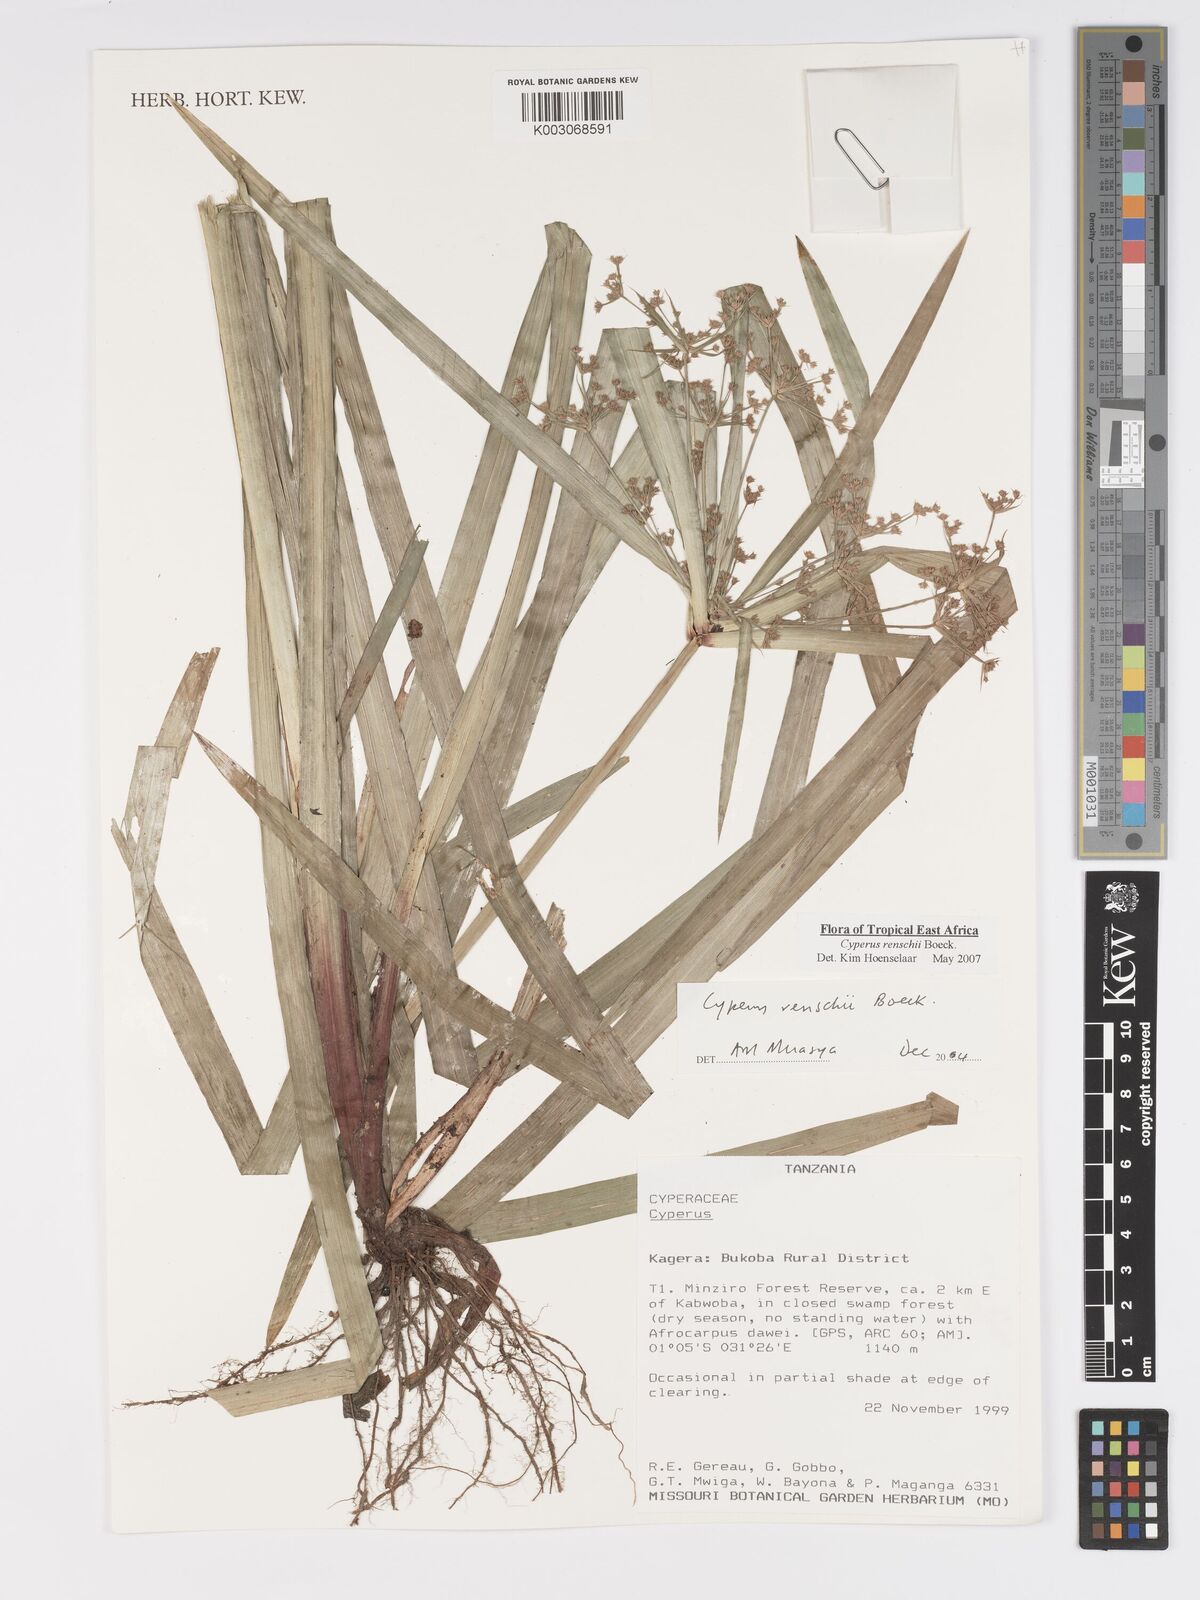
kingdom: Plantae
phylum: Tracheophyta
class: Liliopsida
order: Poales
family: Cyperaceae
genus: Cyperus
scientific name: Cyperus renschii
